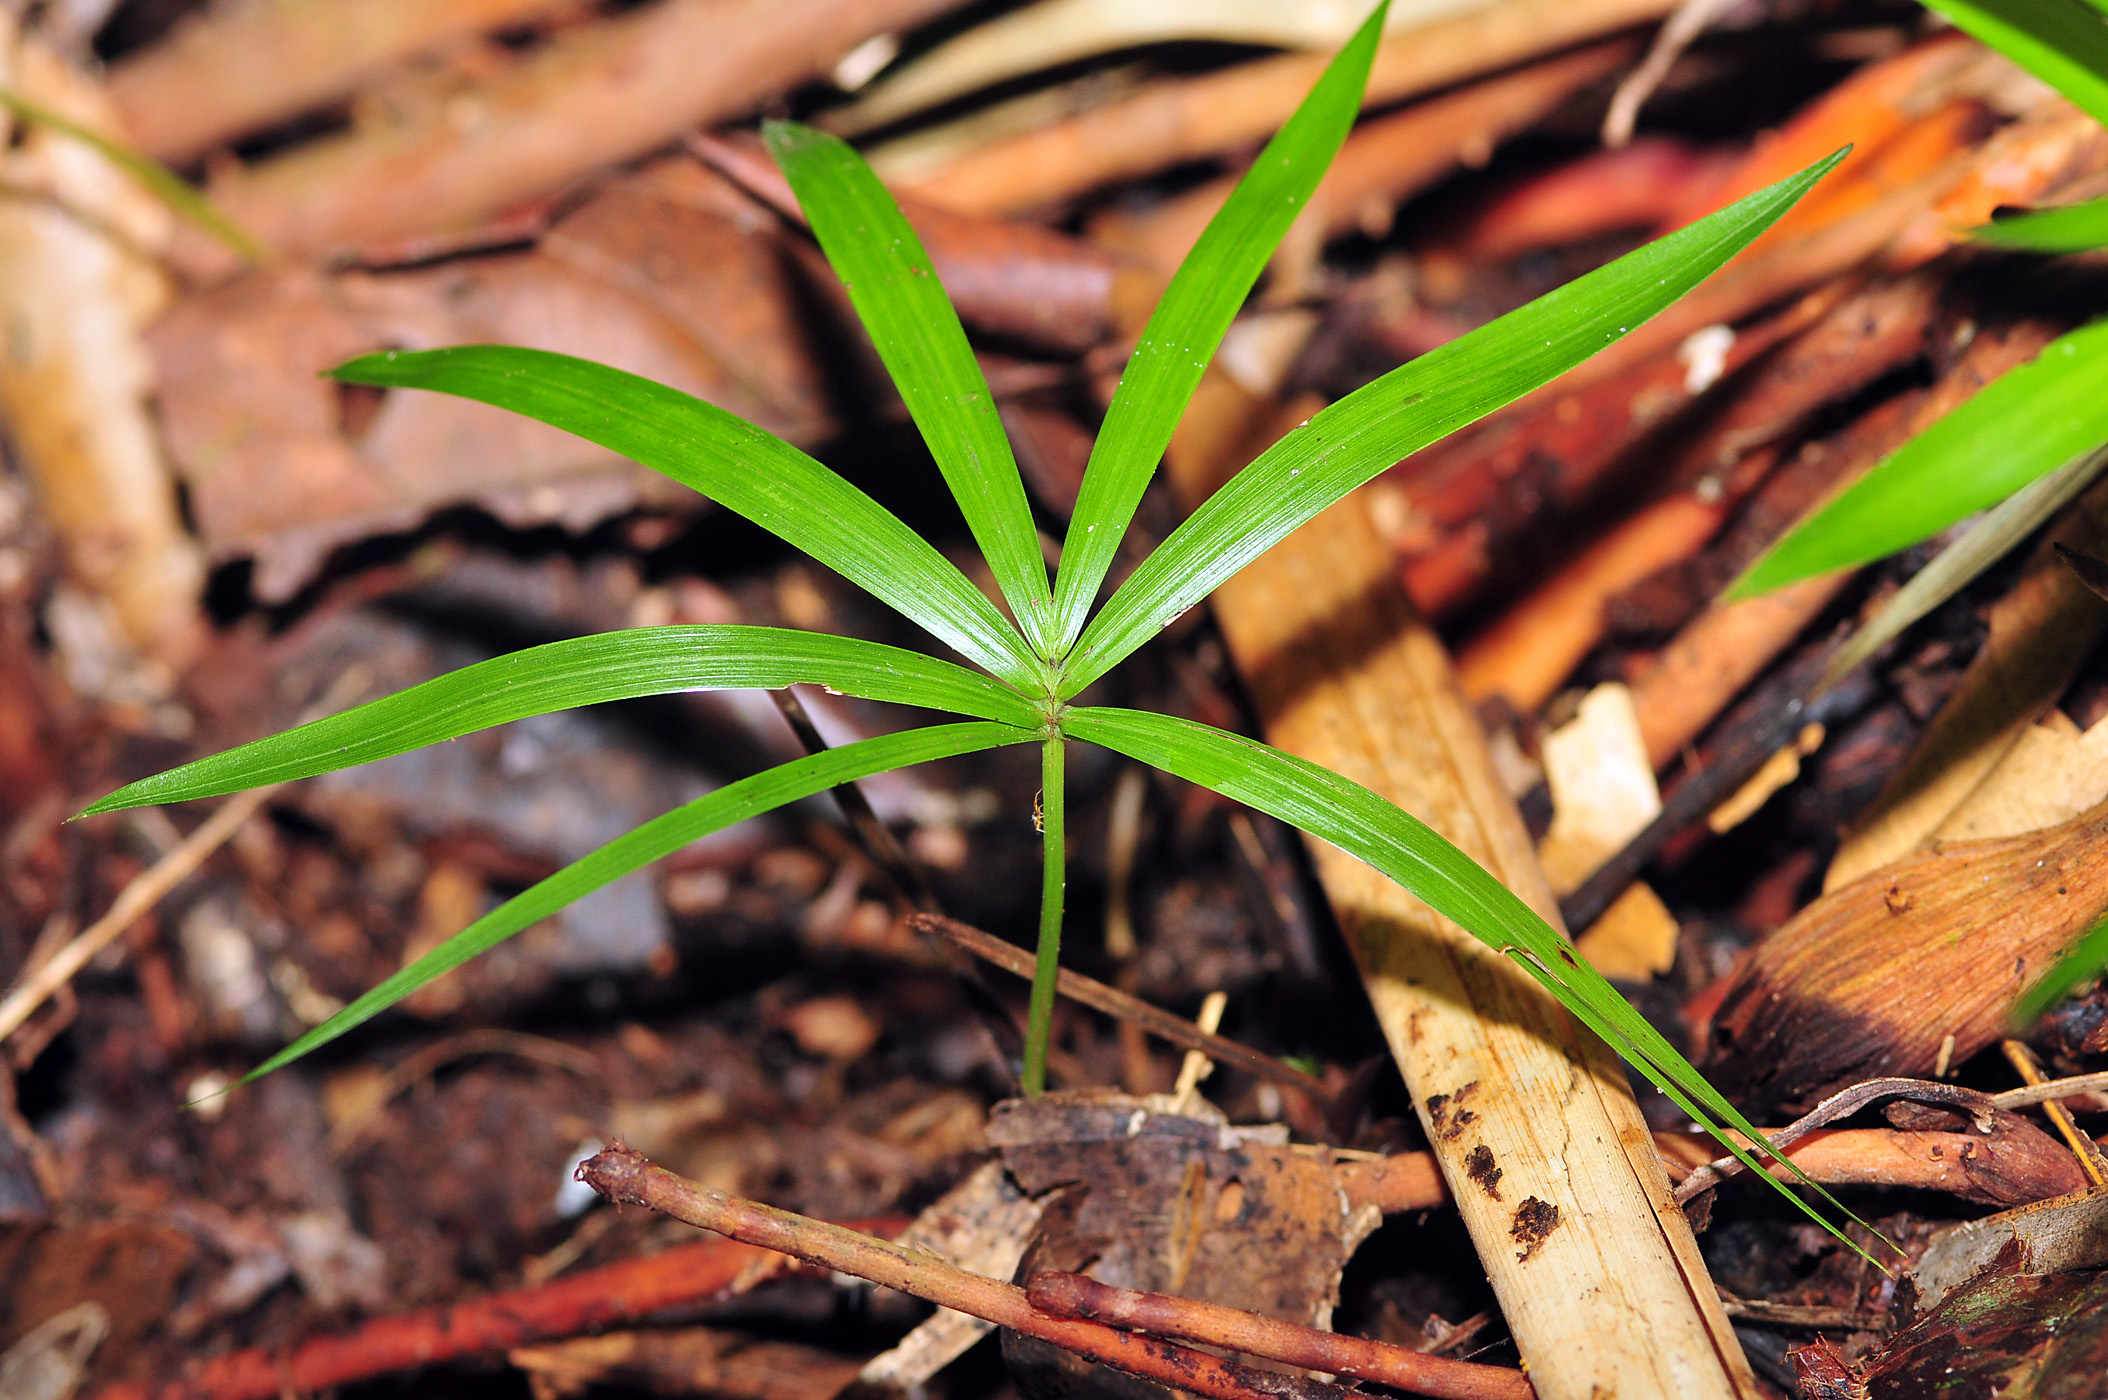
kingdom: Plantae
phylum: Tracheophyta
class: Liliopsida
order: Arecales
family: Arecaceae
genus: Euterpe
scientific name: Euterpe precatoria
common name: Mountain-cabbage
